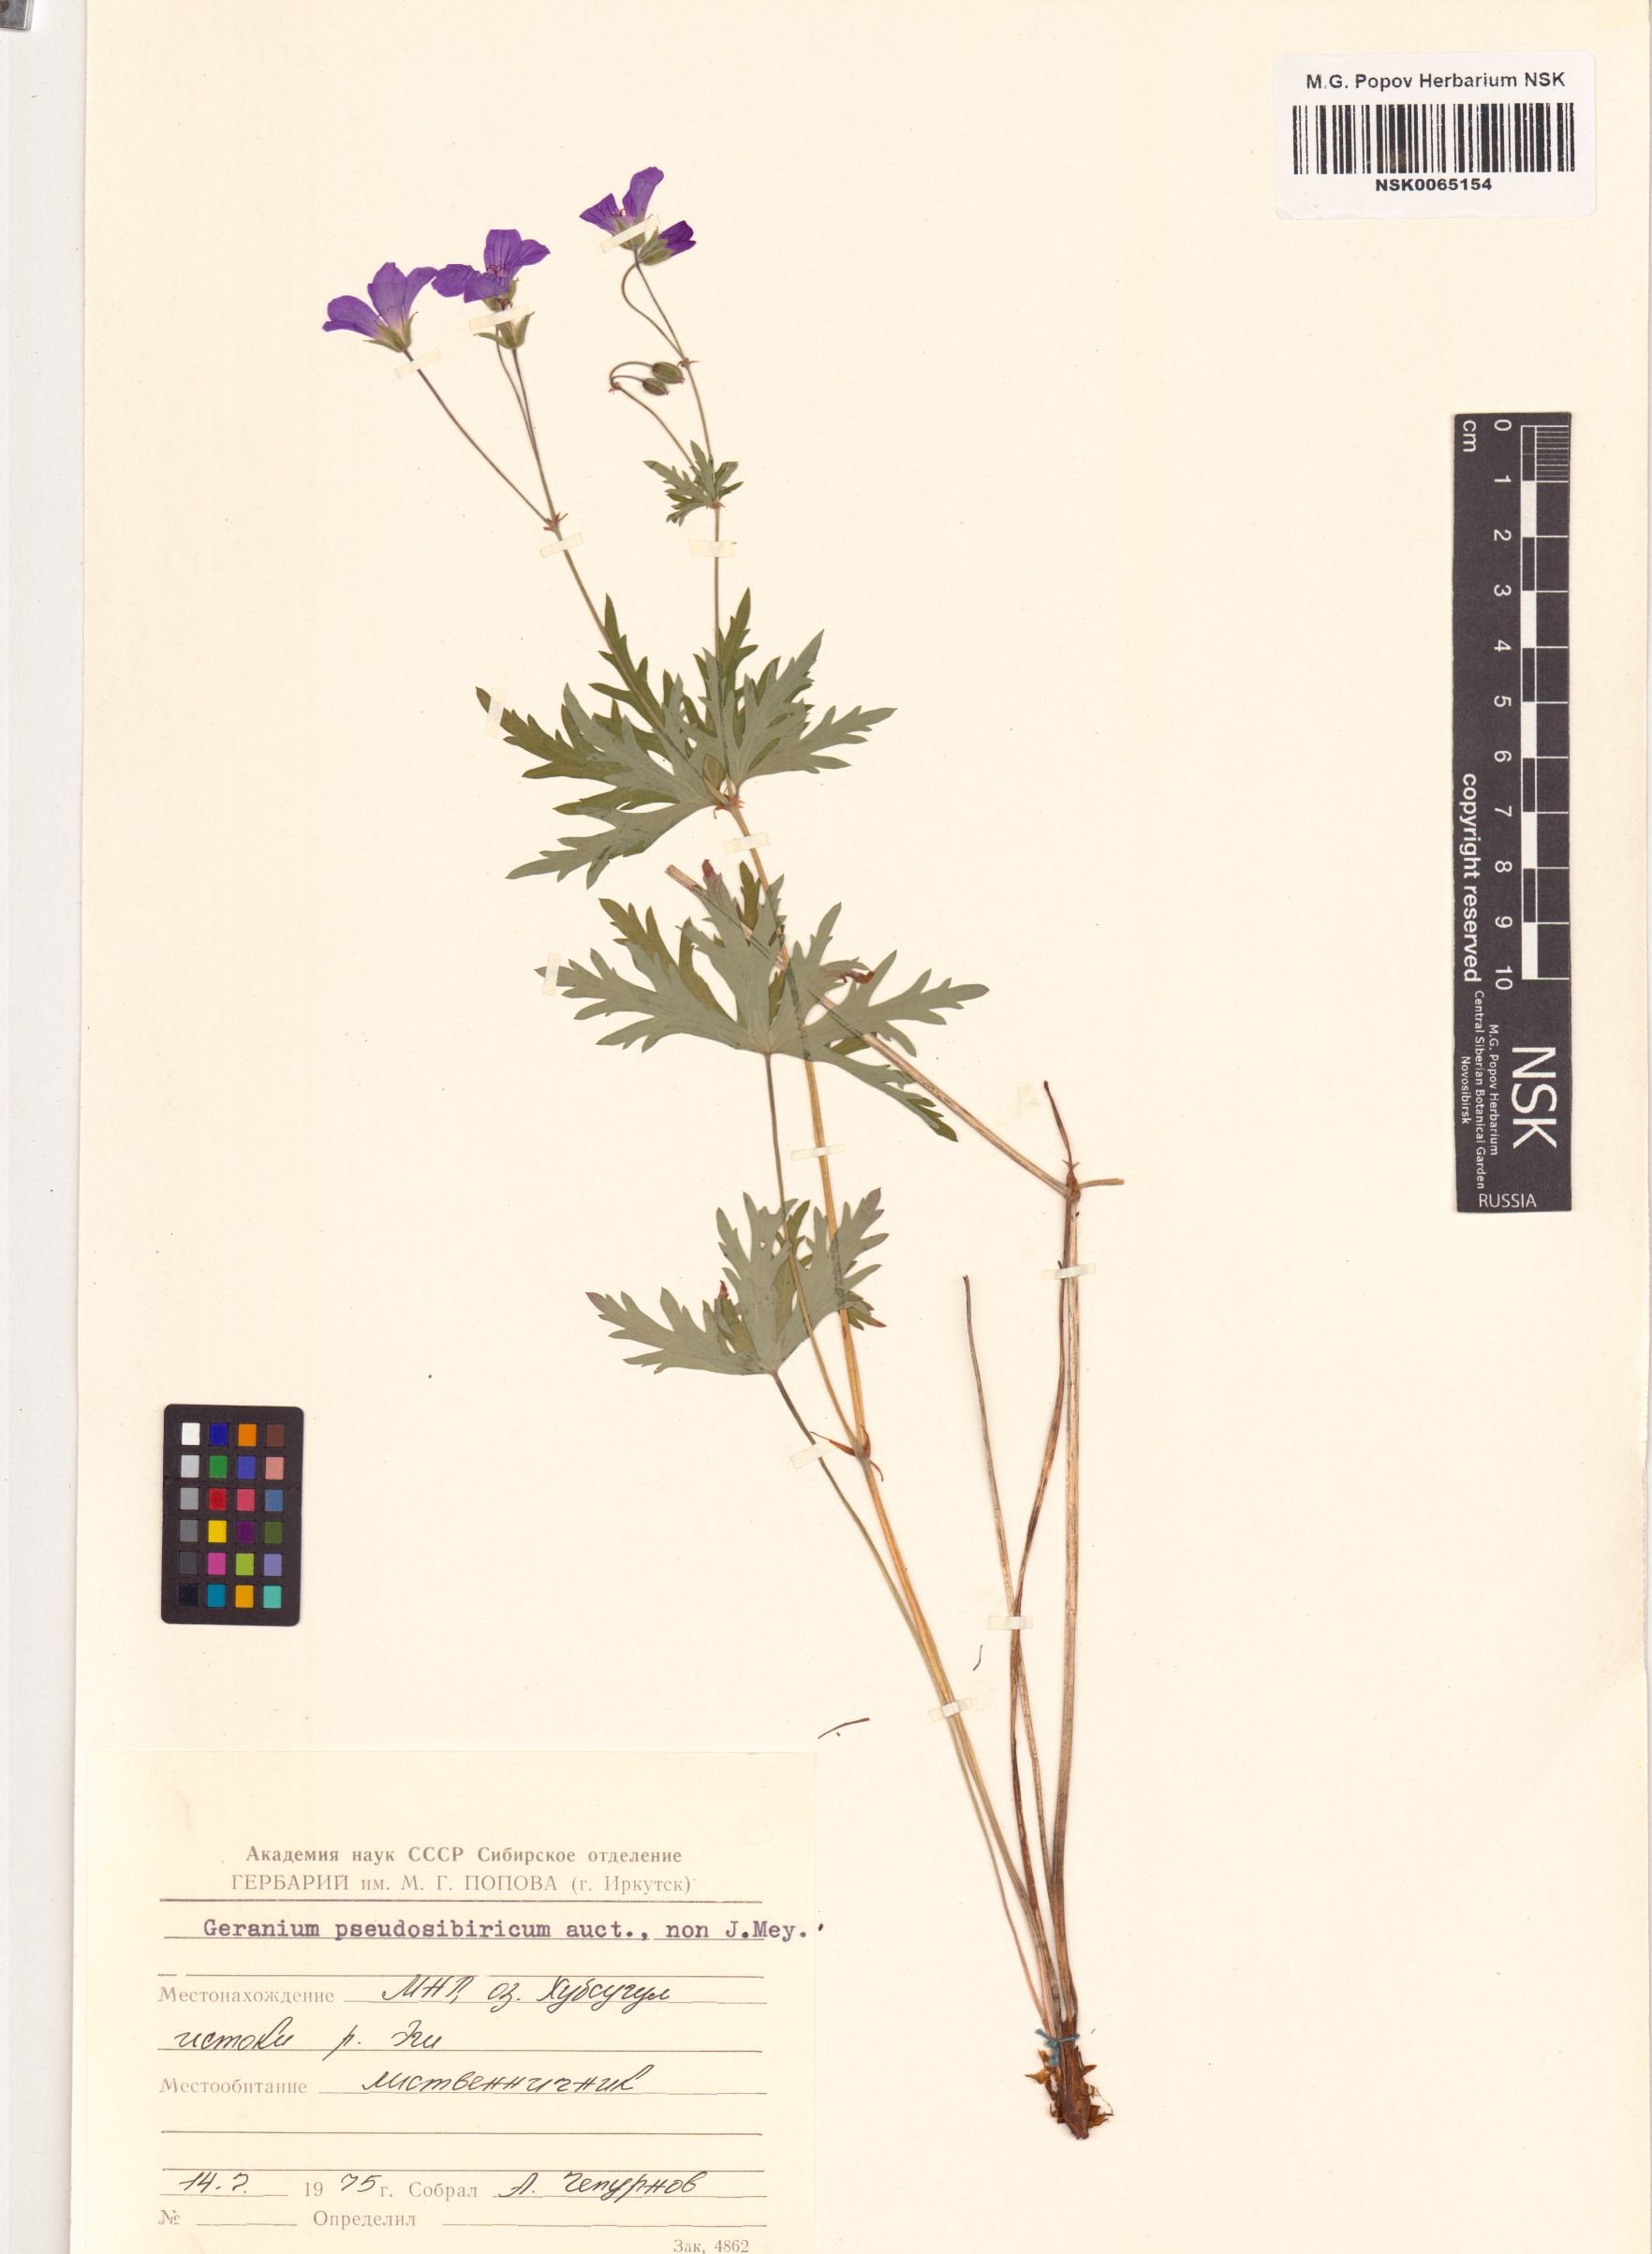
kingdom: Plantae
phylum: Tracheophyta
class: Magnoliopsida
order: Geraniales
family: Geraniaceae
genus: Geranium
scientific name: Geranium pseudosibiricum
